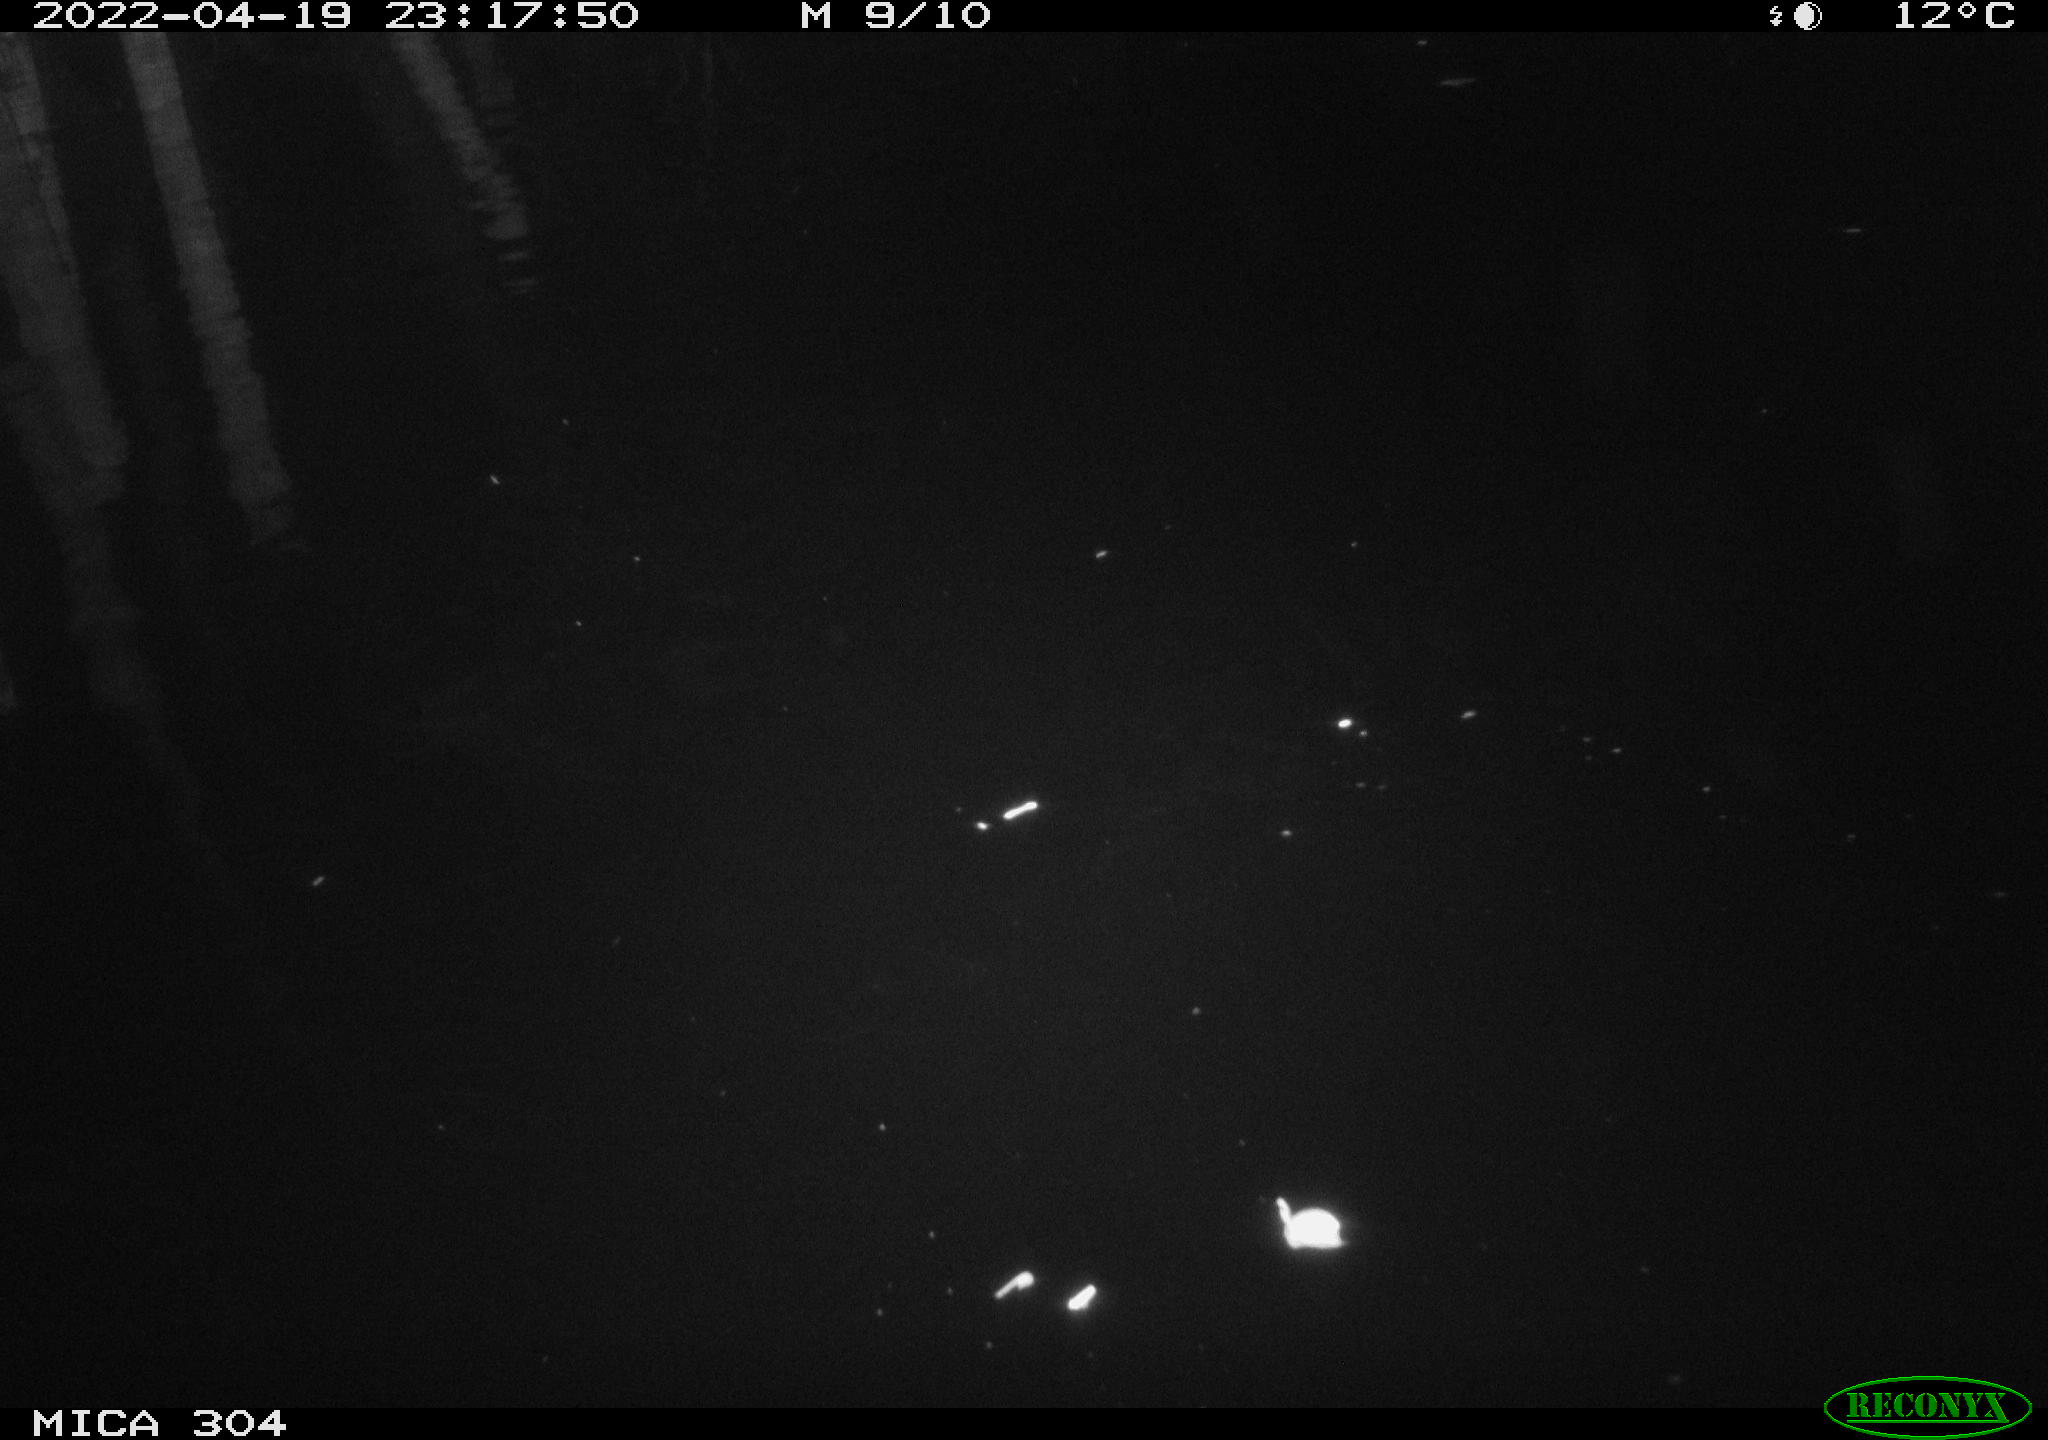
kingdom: Animalia
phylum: Chordata
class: Mammalia
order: Rodentia
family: Muridae
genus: Rattus
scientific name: Rattus norvegicus
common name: Brown rat
